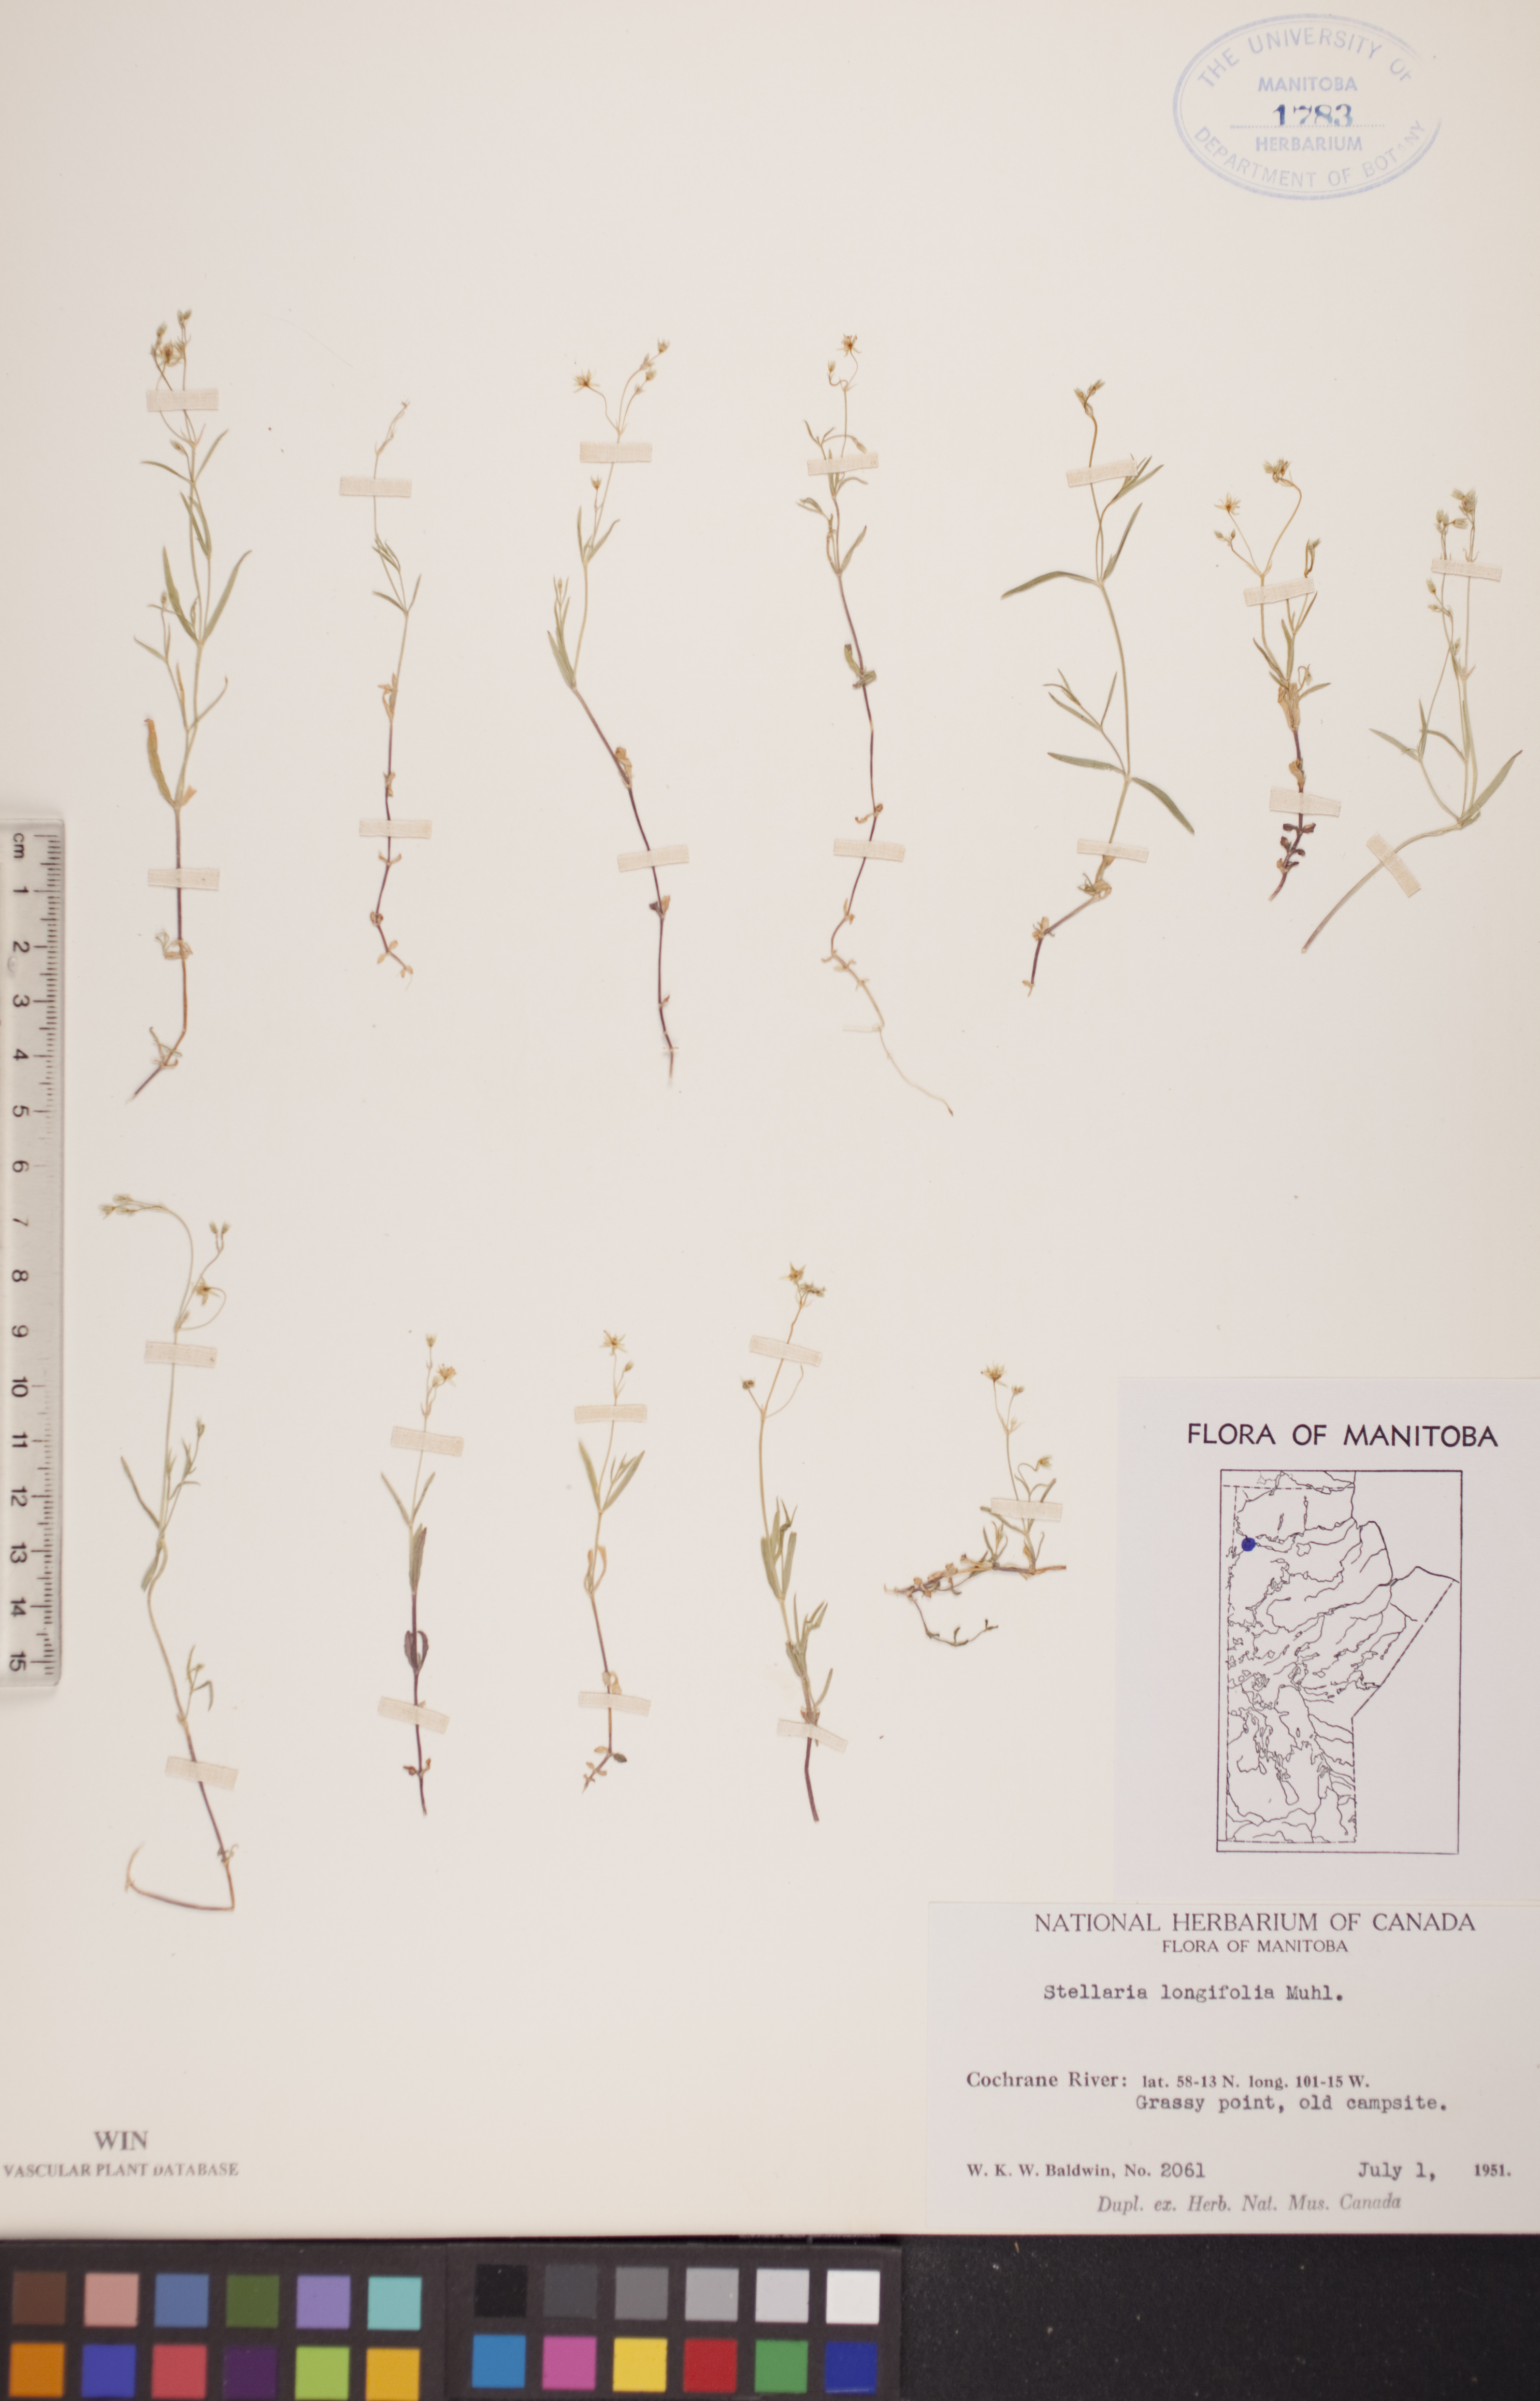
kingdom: Plantae
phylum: Tracheophyta
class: Magnoliopsida
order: Caryophyllales
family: Caryophyllaceae
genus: Stellaria
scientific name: Stellaria longifolia
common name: Long-leaved chickweed
